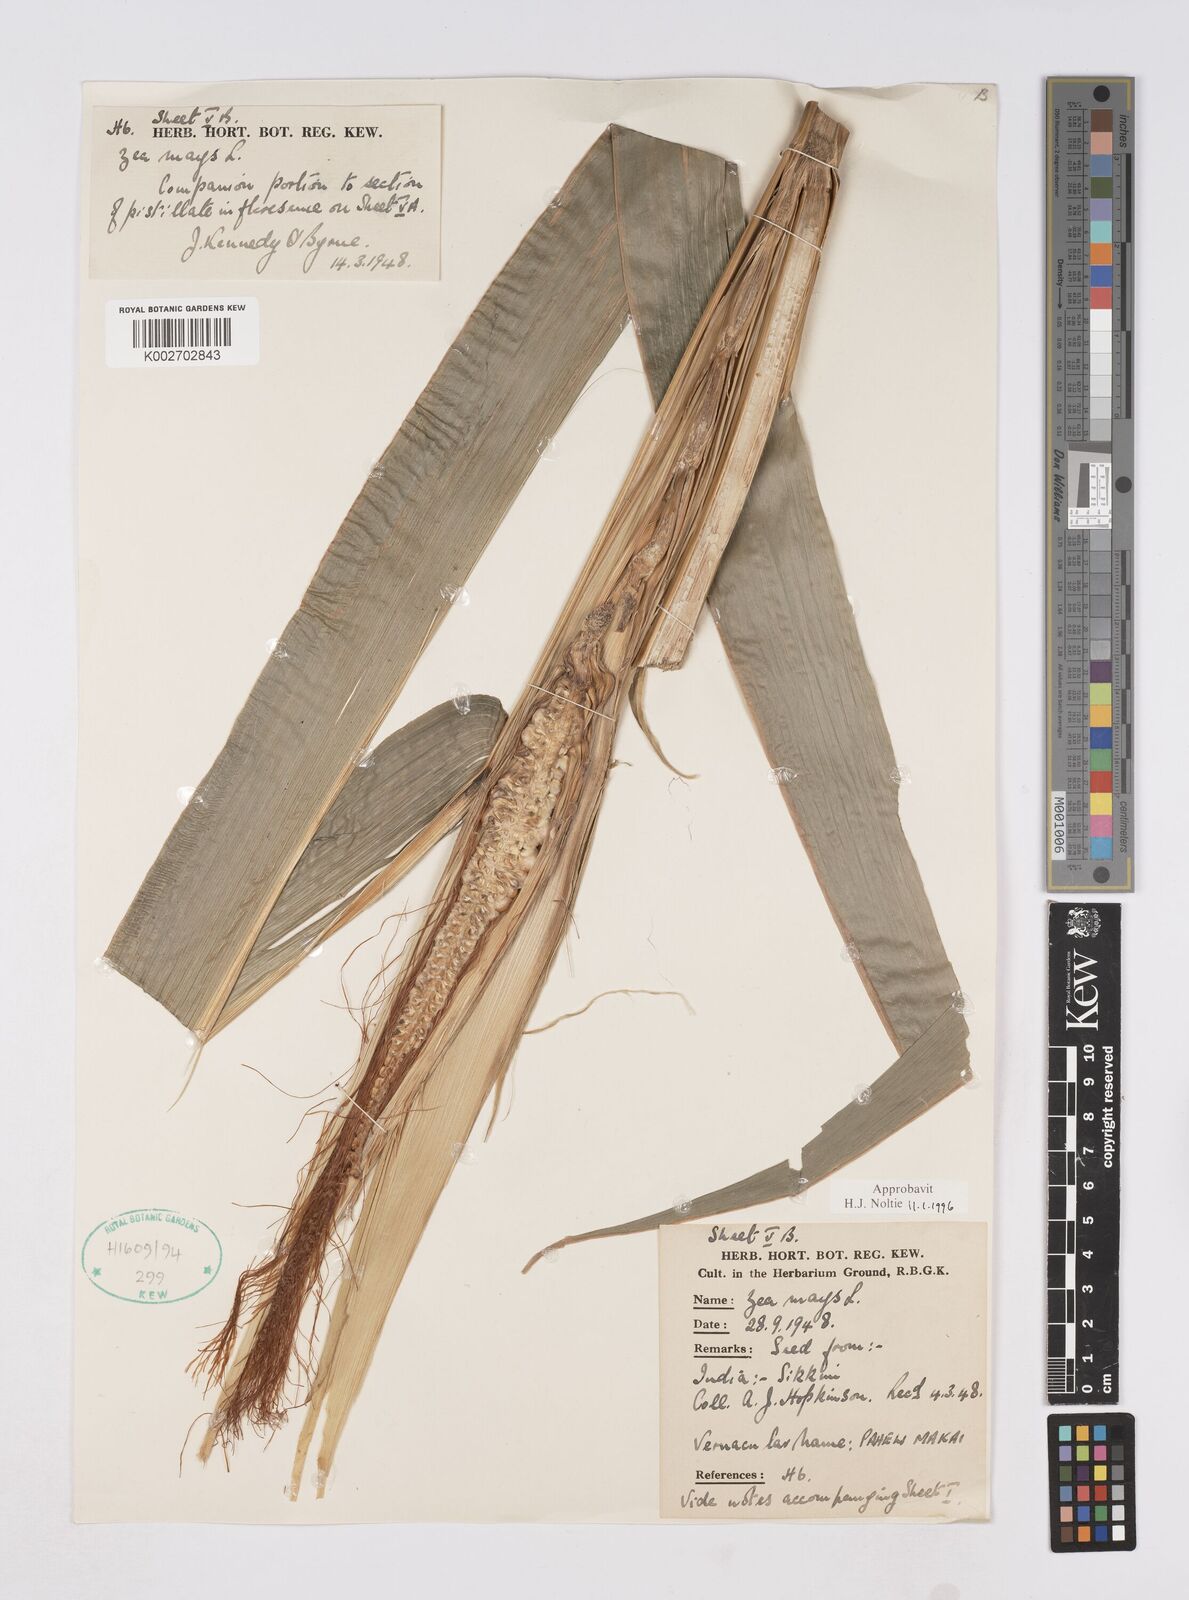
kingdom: Plantae
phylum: Tracheophyta
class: Liliopsida
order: Poales
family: Poaceae
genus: Zea
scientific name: Zea mays
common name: Maize
